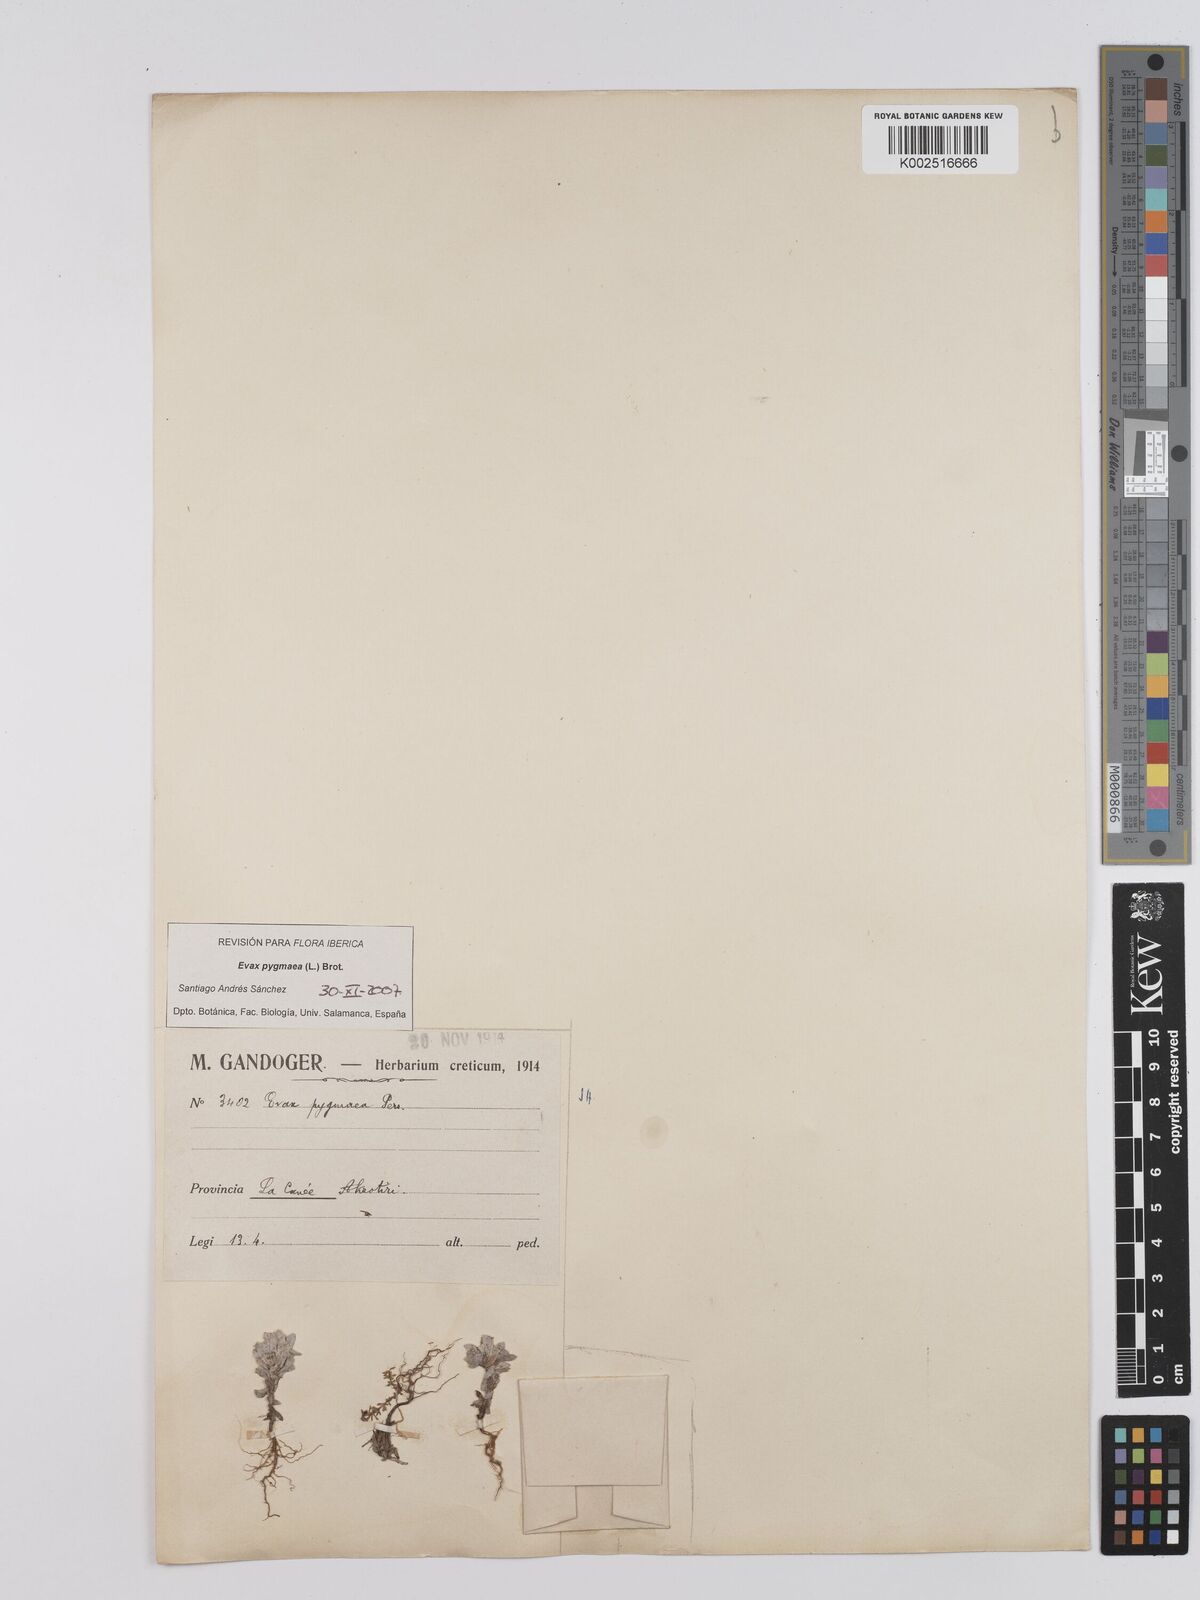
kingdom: Plantae
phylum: Tracheophyta
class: Magnoliopsida
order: Asterales
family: Asteraceae
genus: Filago
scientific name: Filago pygmaea
